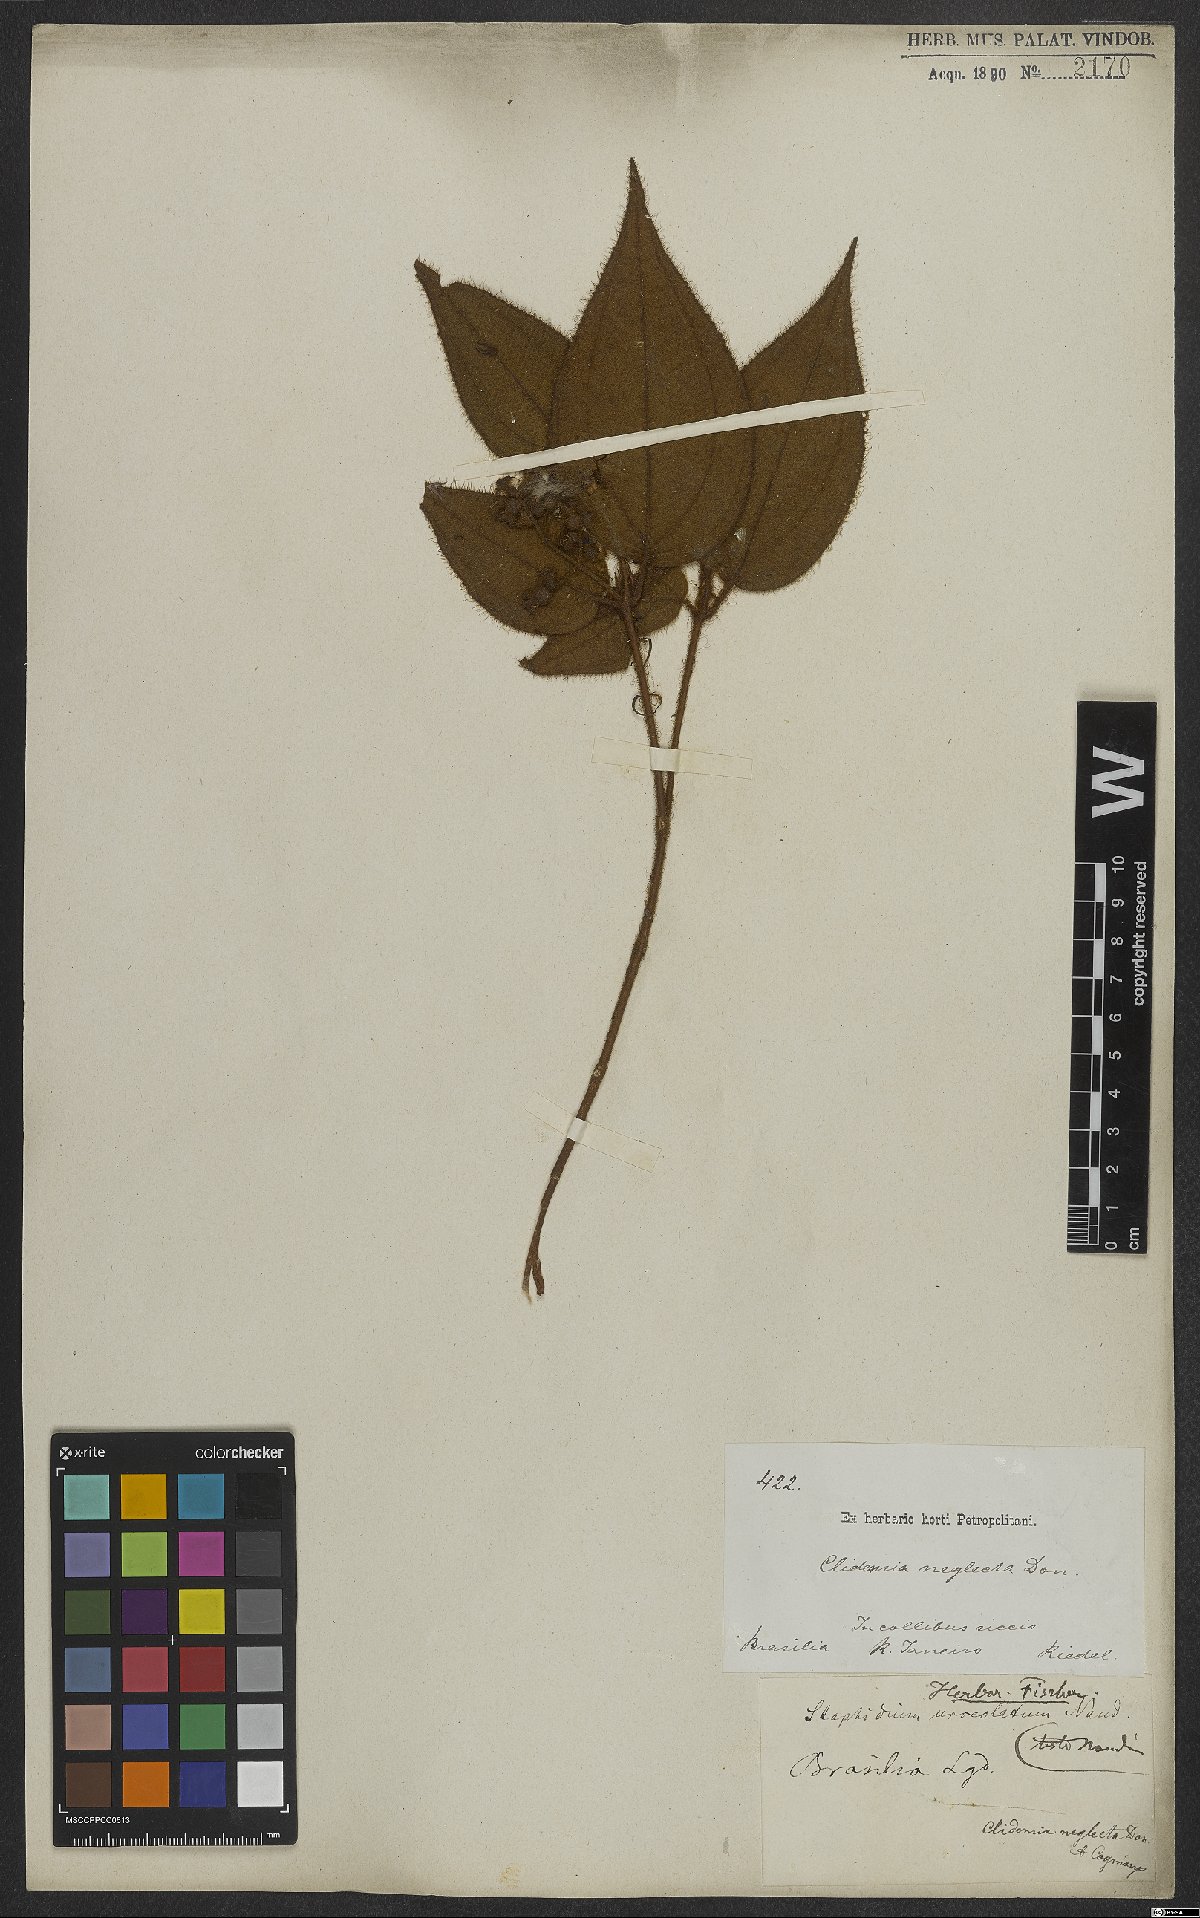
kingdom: Plantae
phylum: Tracheophyta
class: Magnoliopsida
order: Myrtales
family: Melastomataceae
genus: Miconia
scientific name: Miconia dependens
